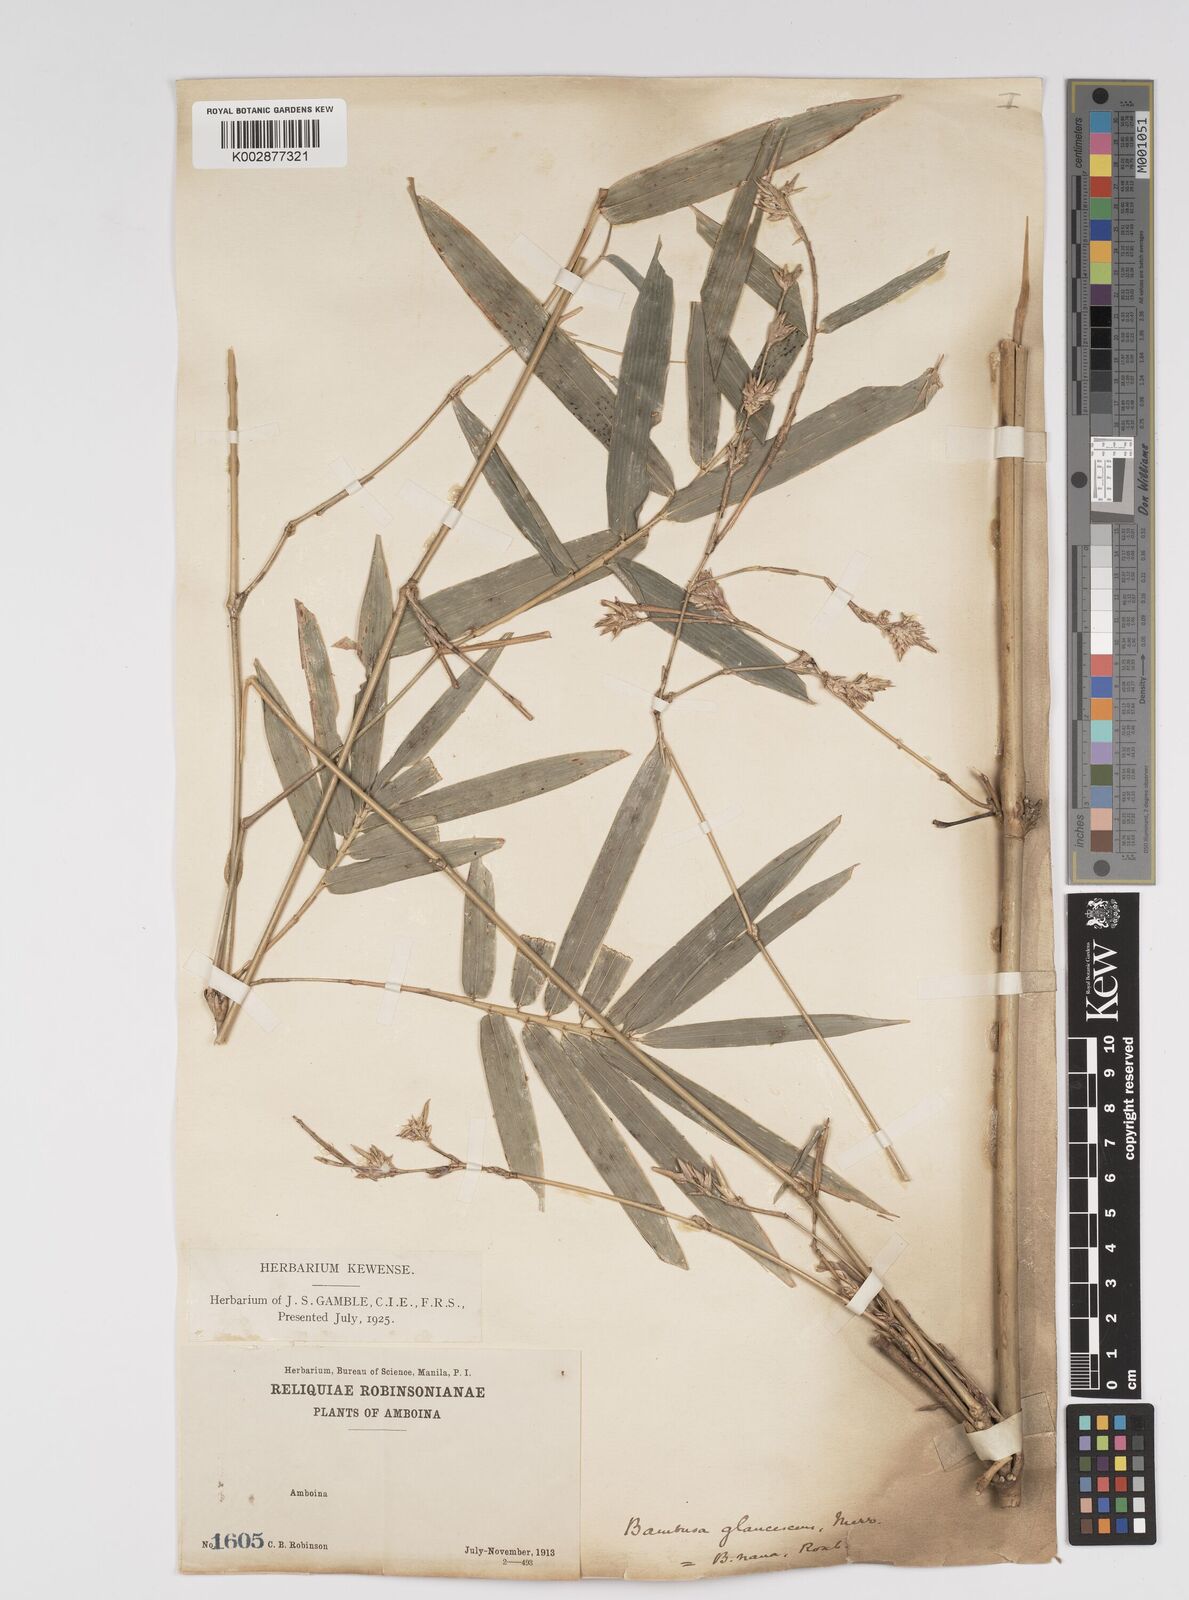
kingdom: Plantae
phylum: Tracheophyta
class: Liliopsida
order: Poales
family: Poaceae
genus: Bambusa
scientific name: Bambusa multiplex
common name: Hedge bamboo
